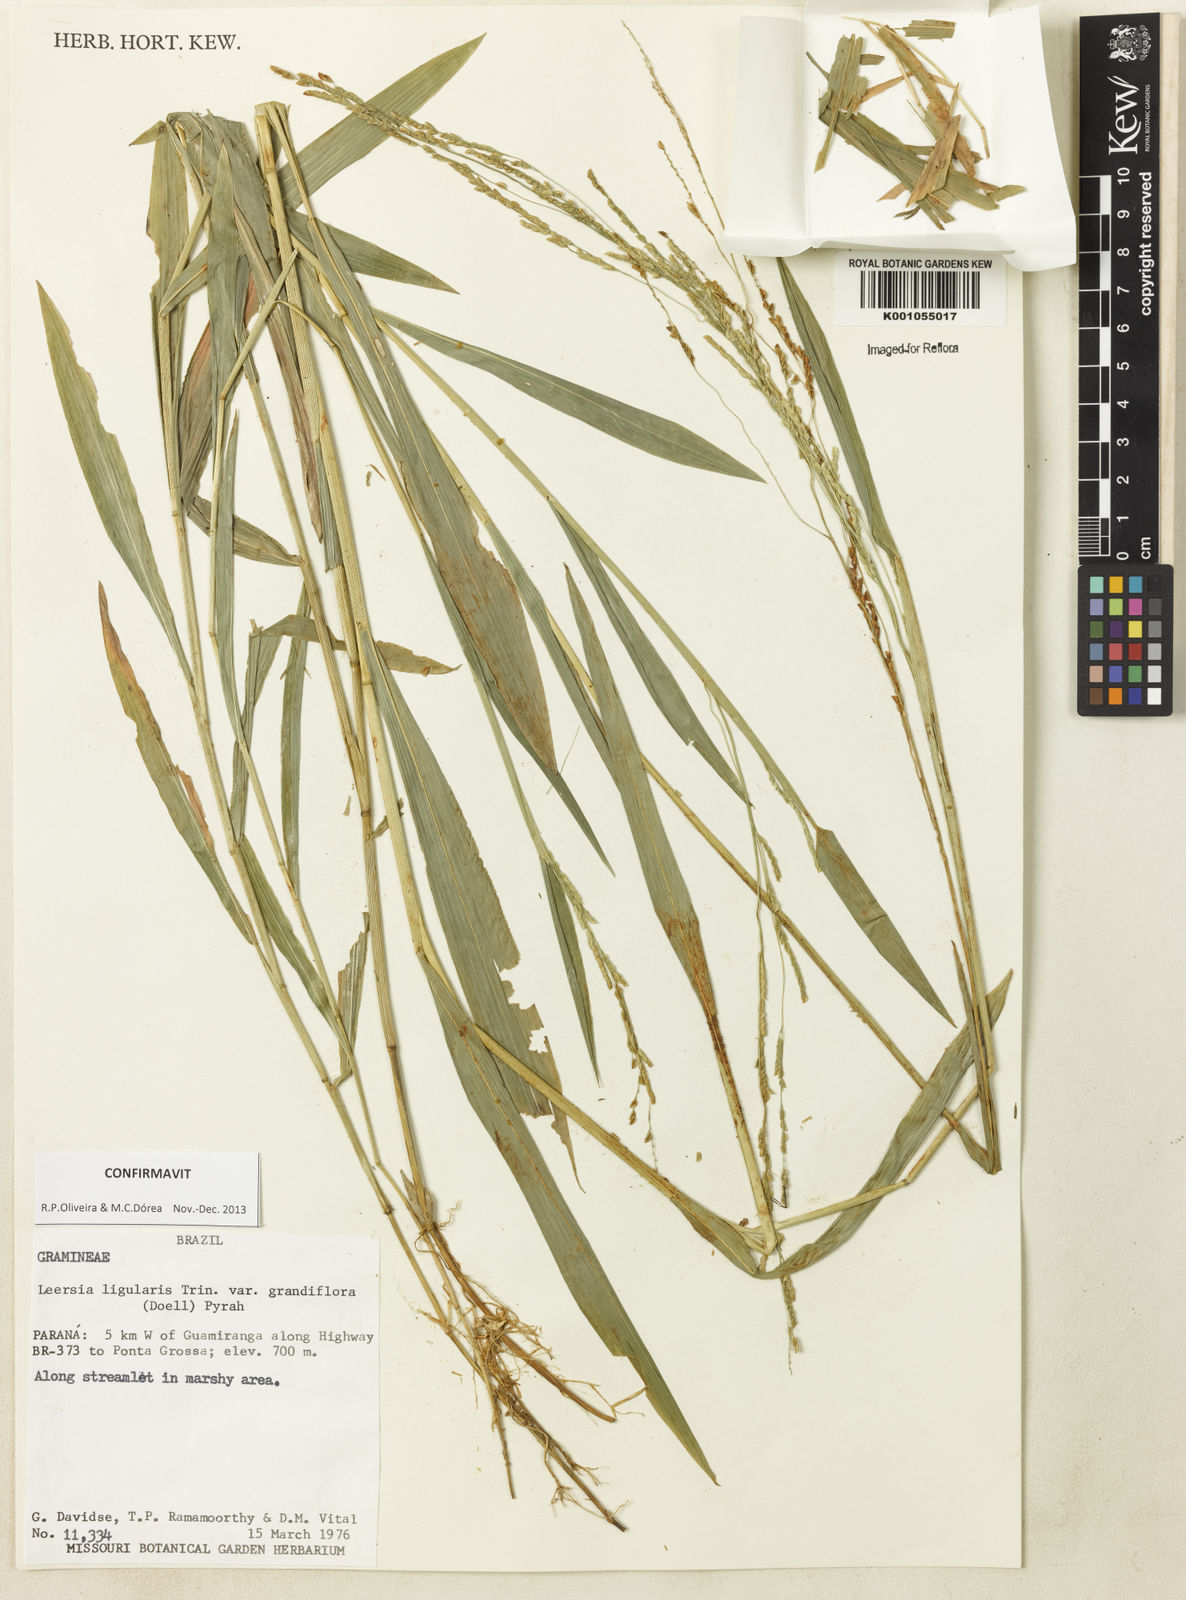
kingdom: Plantae
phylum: Tracheophyta
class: Liliopsida
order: Poales
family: Poaceae
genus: Leersia
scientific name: Leersia ligularis
